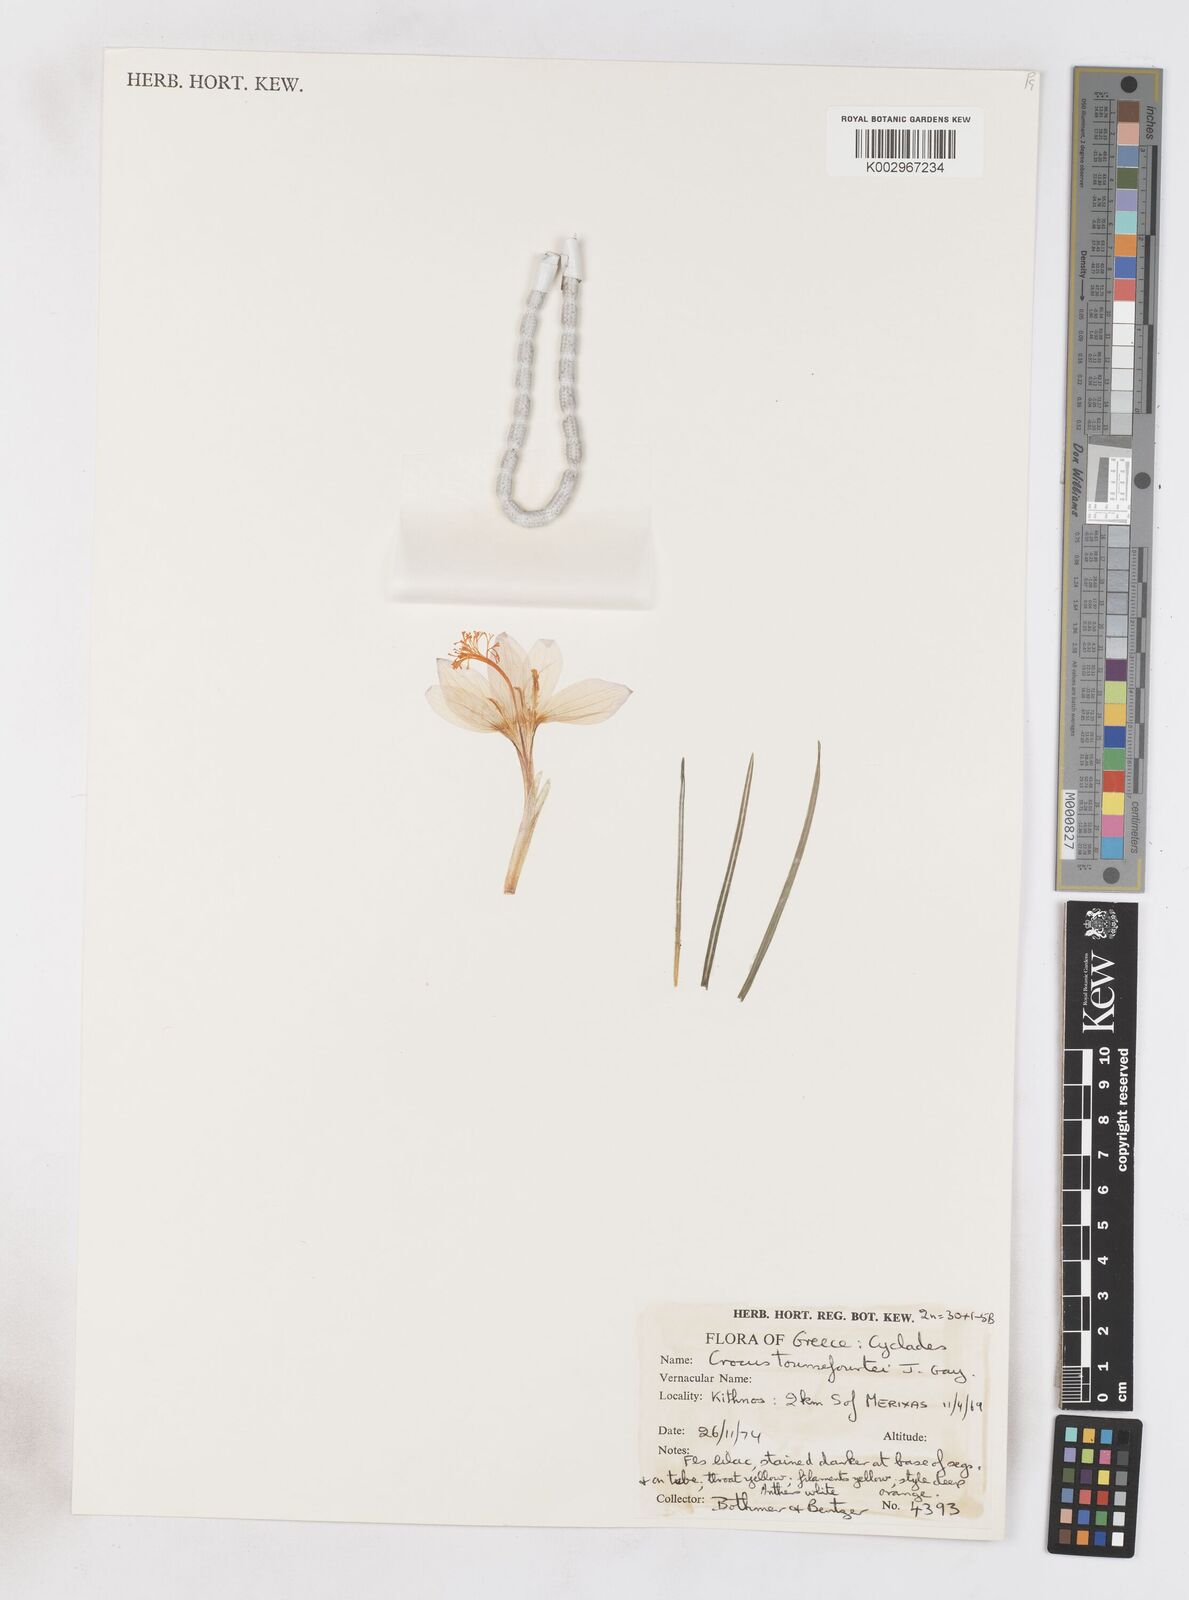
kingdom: Plantae
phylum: Tracheophyta
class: Liliopsida
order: Asparagales
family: Iridaceae
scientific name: Iridaceae
